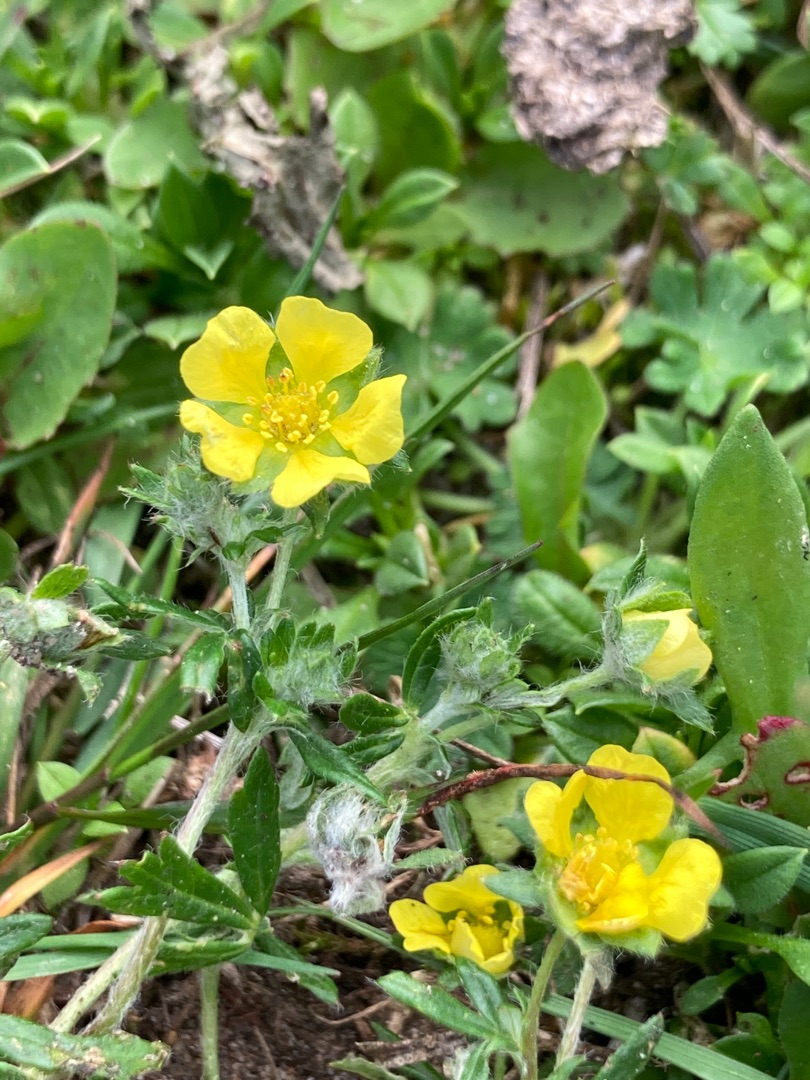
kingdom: Plantae
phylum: Tracheophyta
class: Magnoliopsida
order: Rosales
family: Rosaceae
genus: Potentilla
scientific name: Potentilla argentea
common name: Sølv-potentil
